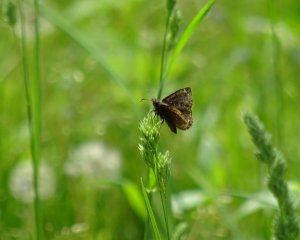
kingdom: Animalia
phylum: Arthropoda
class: Insecta
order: Lepidoptera
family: Hesperiidae
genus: Erynnis
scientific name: Erynnis
